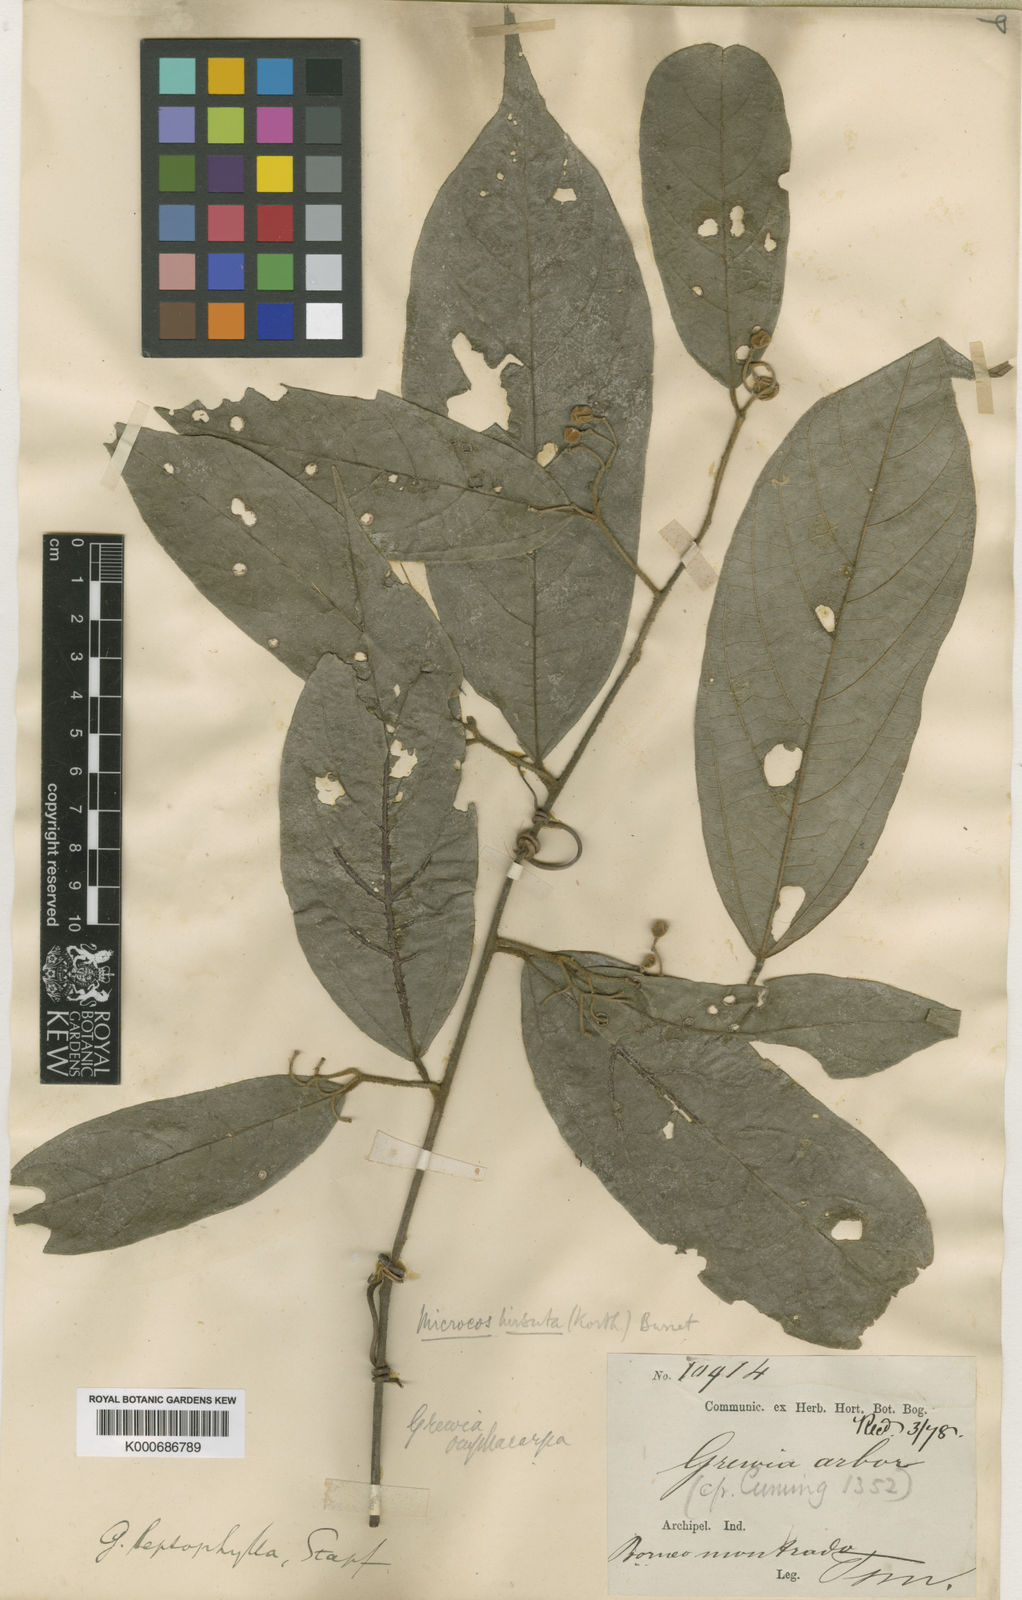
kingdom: Plantae
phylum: Tracheophyta
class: Magnoliopsida
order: Malvales
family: Malvaceae
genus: Microcos
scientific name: Microcos hirsuta
